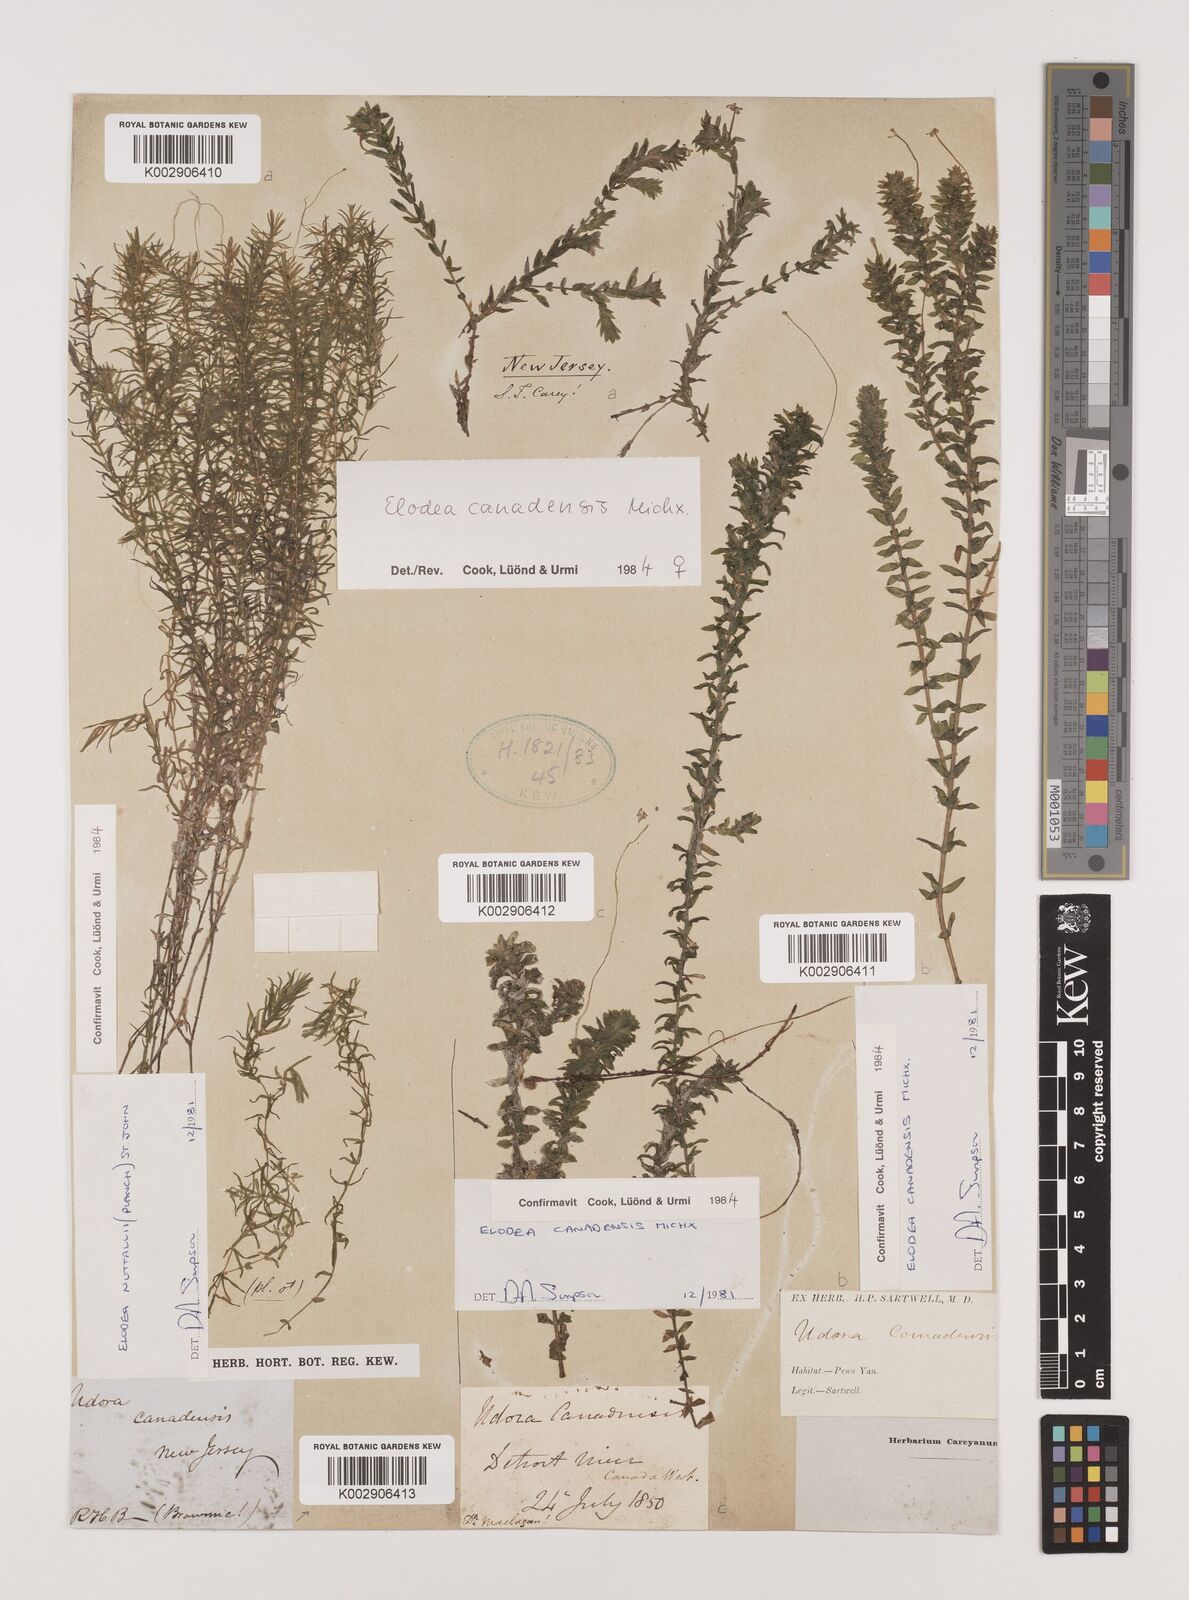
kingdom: Plantae
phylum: Tracheophyta
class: Liliopsida
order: Alismatales
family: Hydrocharitaceae
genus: Elodea
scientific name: Elodea canadensis
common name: Canadian waterweed
